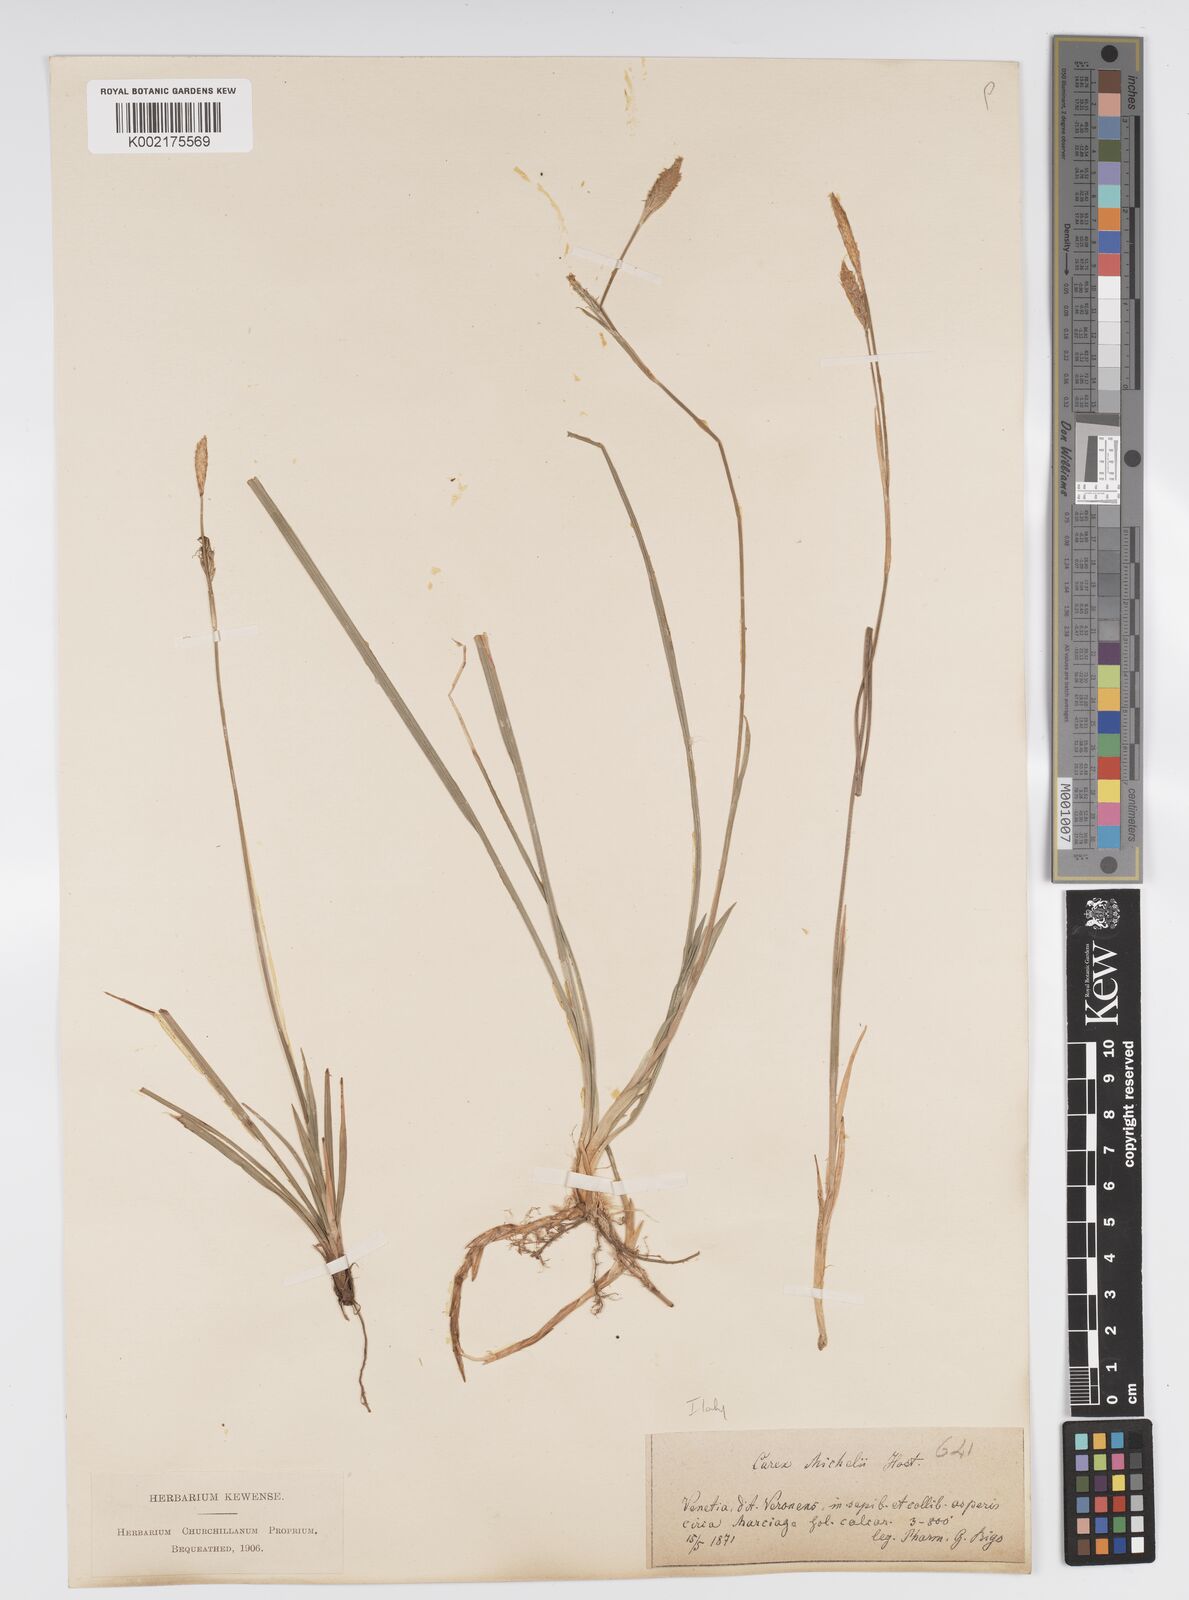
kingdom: Plantae
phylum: Tracheophyta
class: Liliopsida
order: Poales
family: Cyperaceae
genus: Carex
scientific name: Carex michelii
